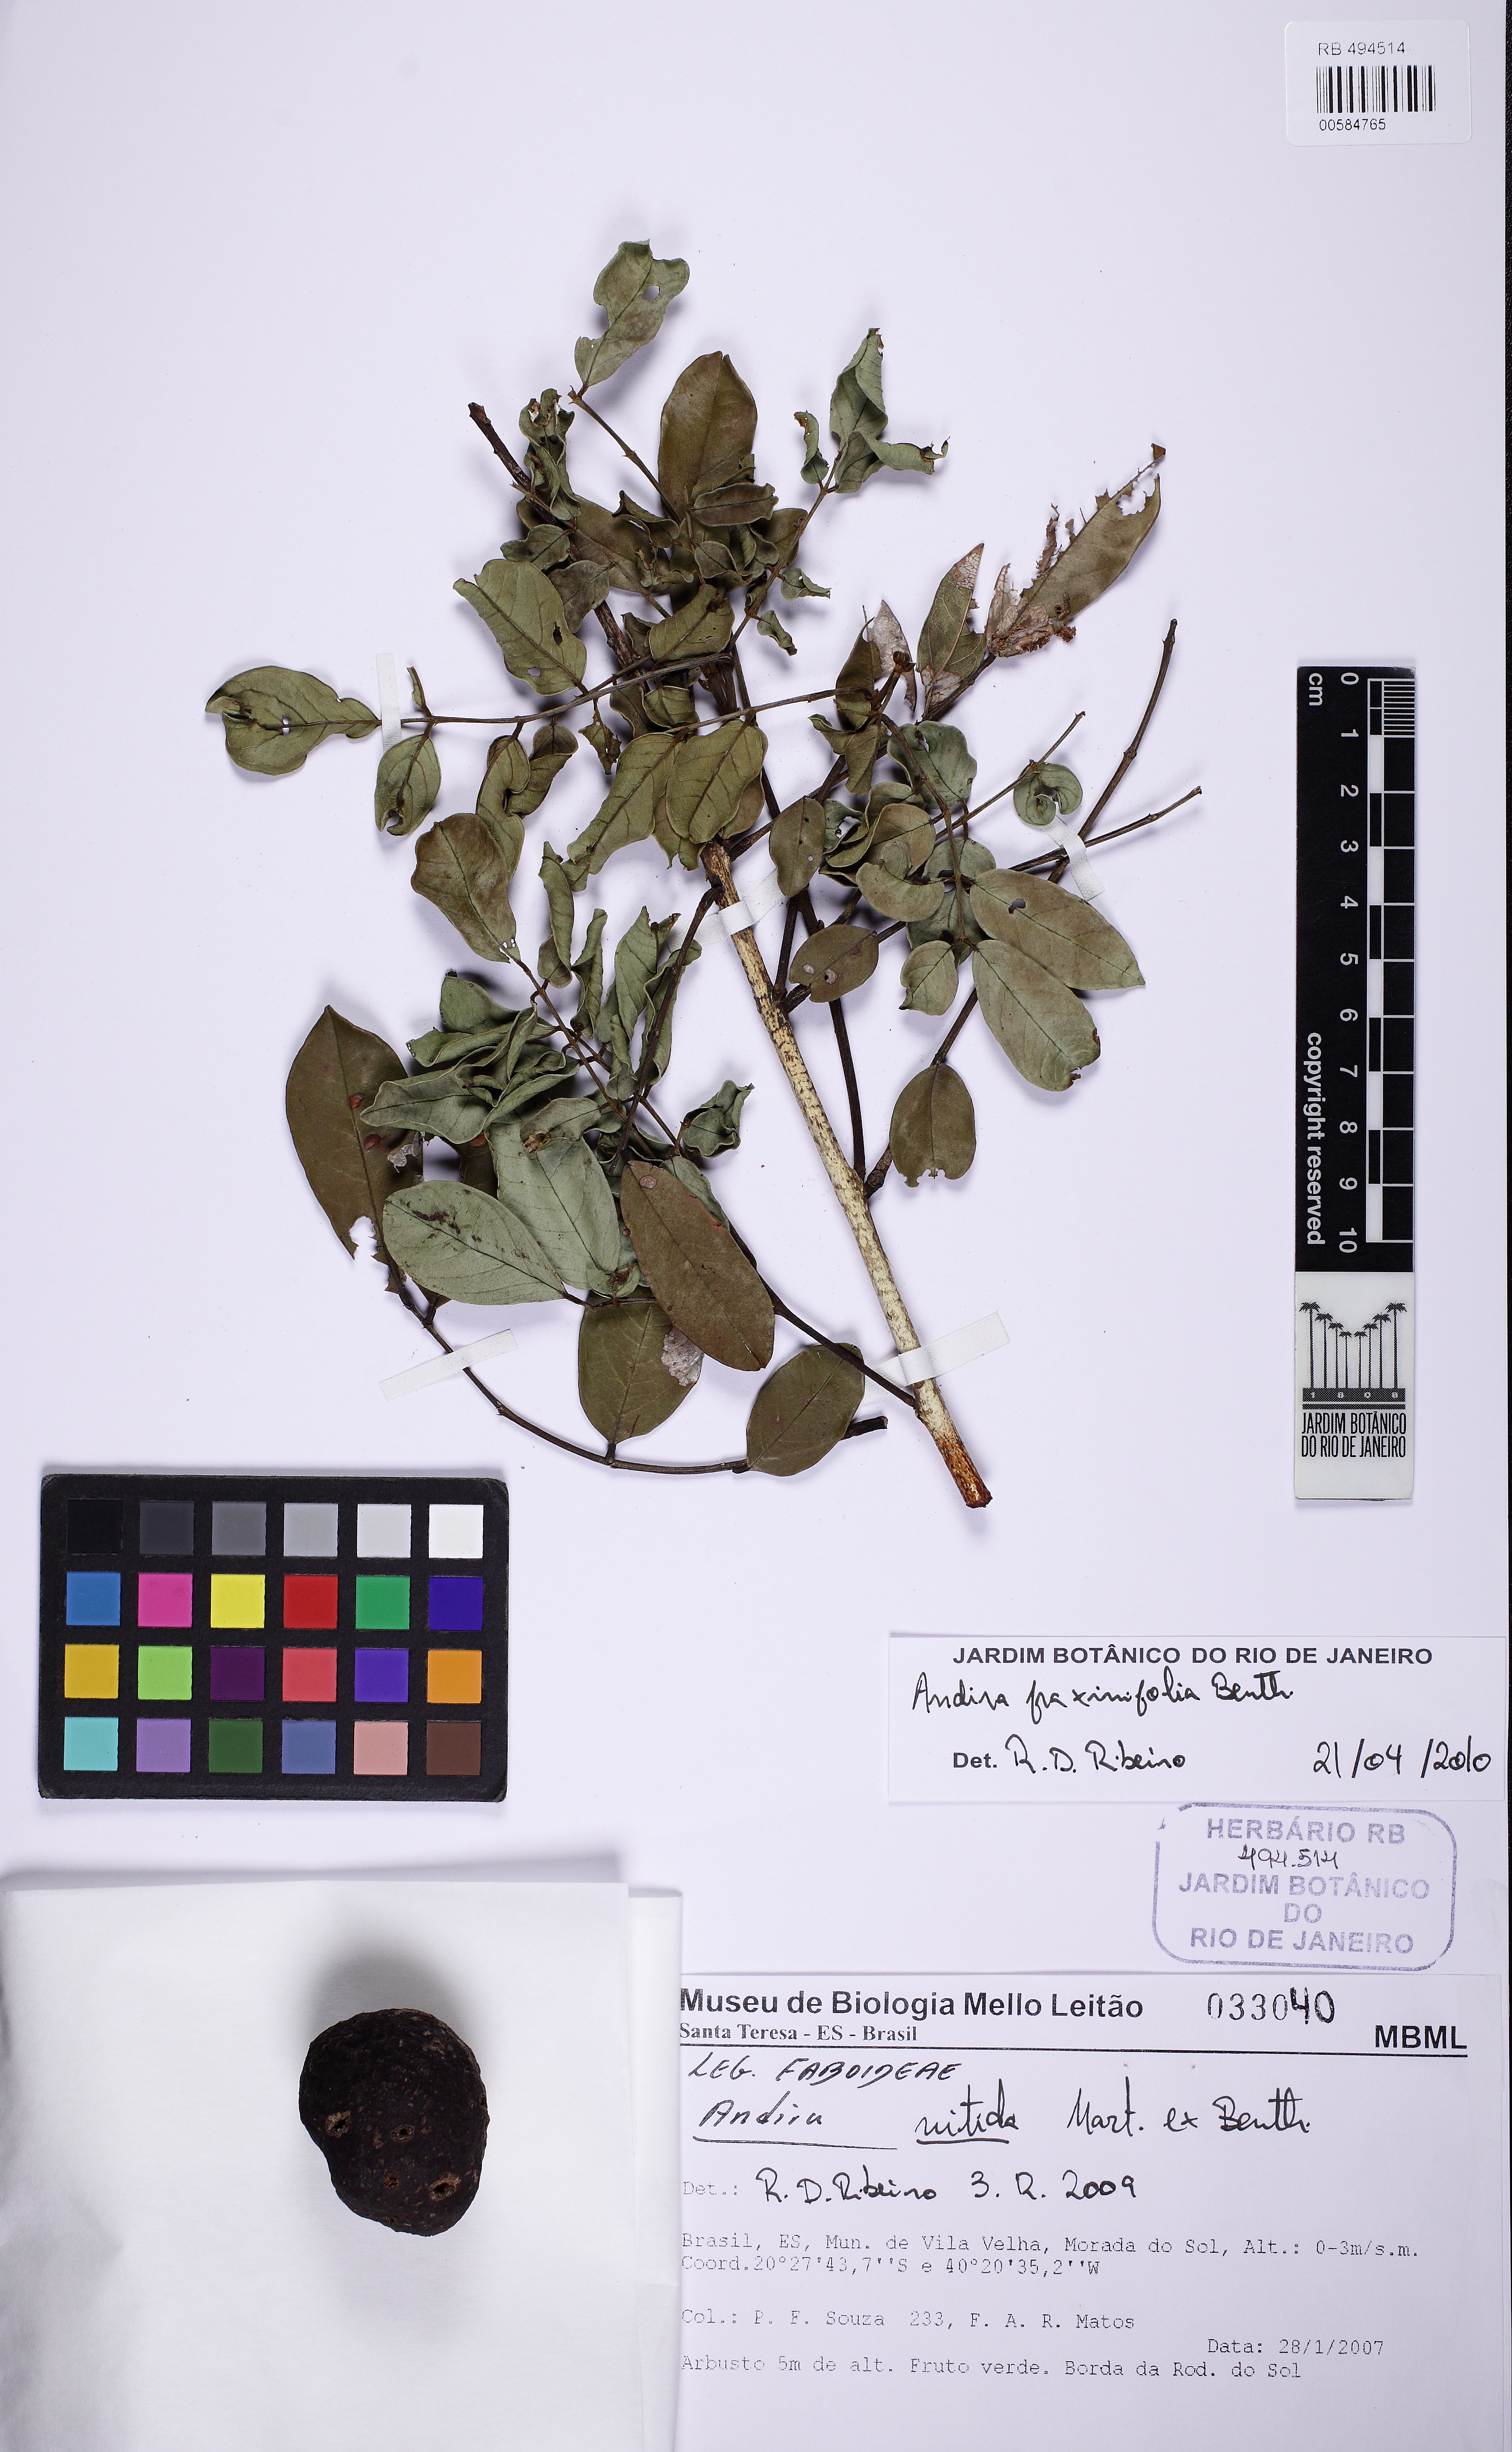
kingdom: Plantae
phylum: Tracheophyta
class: Magnoliopsida
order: Fabales
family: Fabaceae
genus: Andira
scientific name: Andira fraxinifolia
